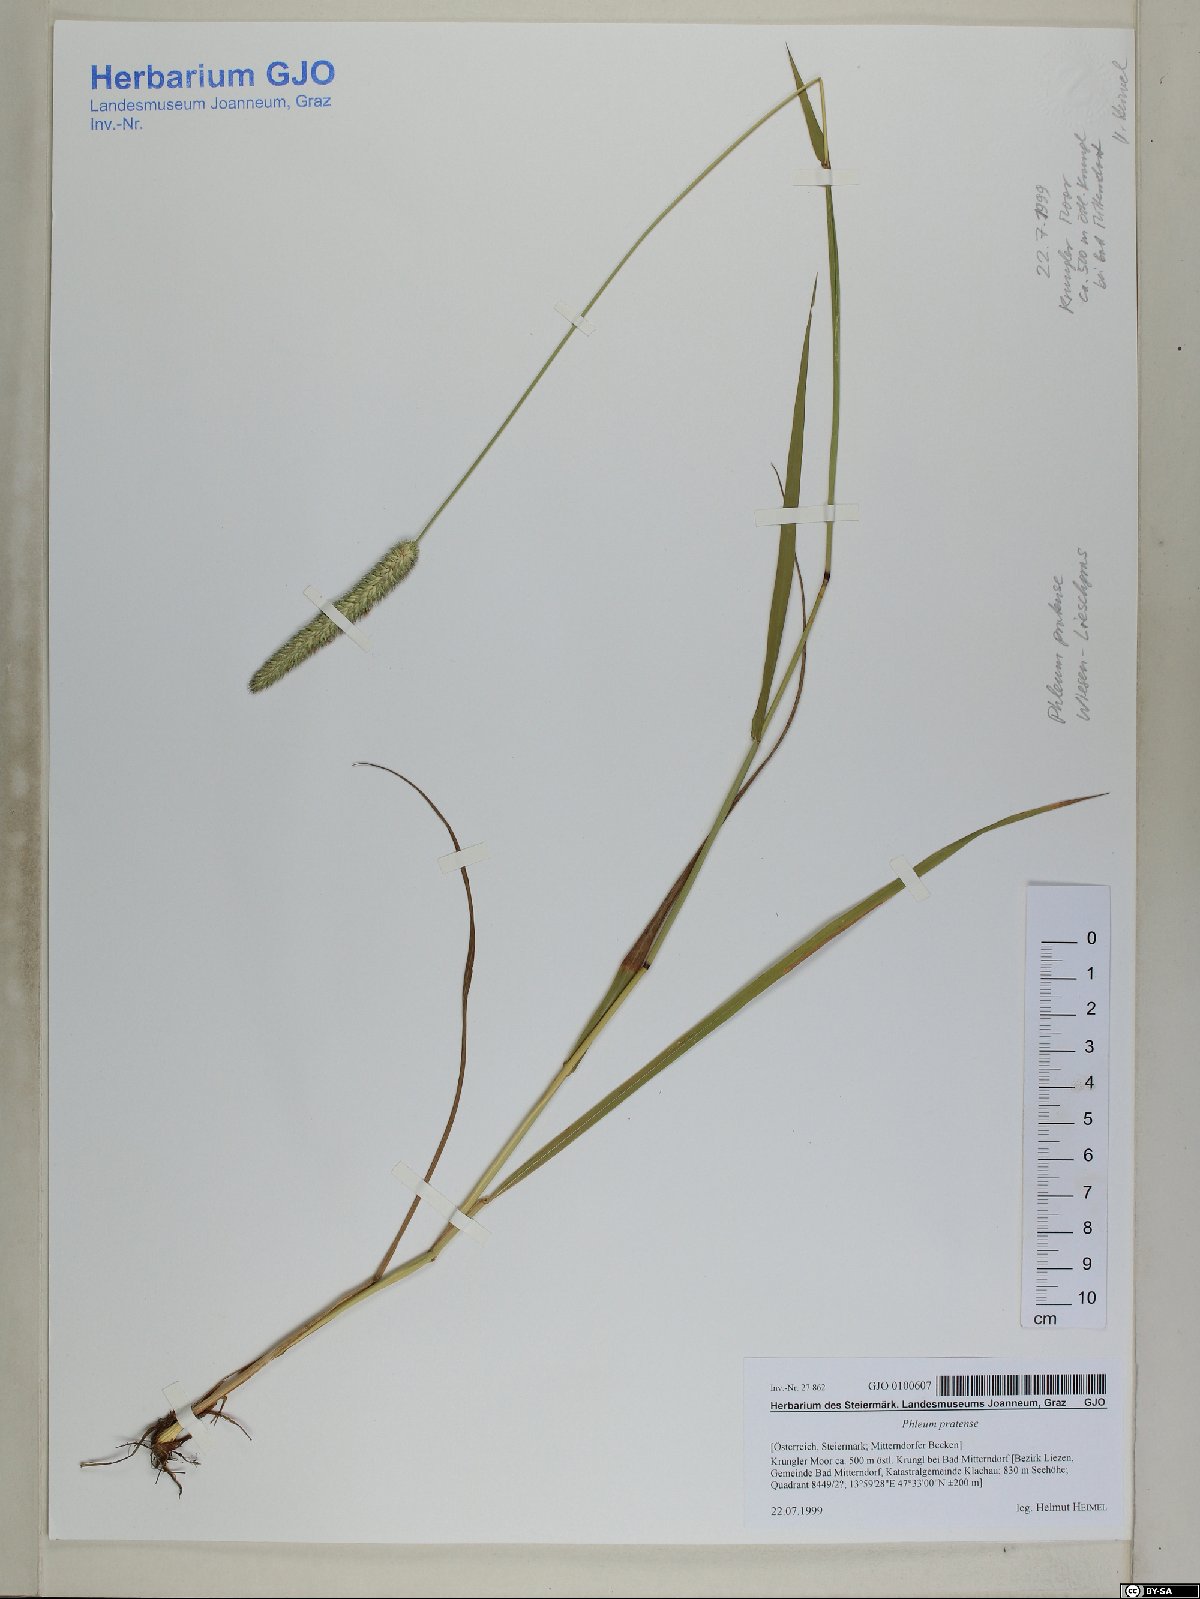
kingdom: Plantae
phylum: Tracheophyta
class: Liliopsida
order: Poales
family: Poaceae
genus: Phleum
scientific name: Phleum pratense
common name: Timothy grass
